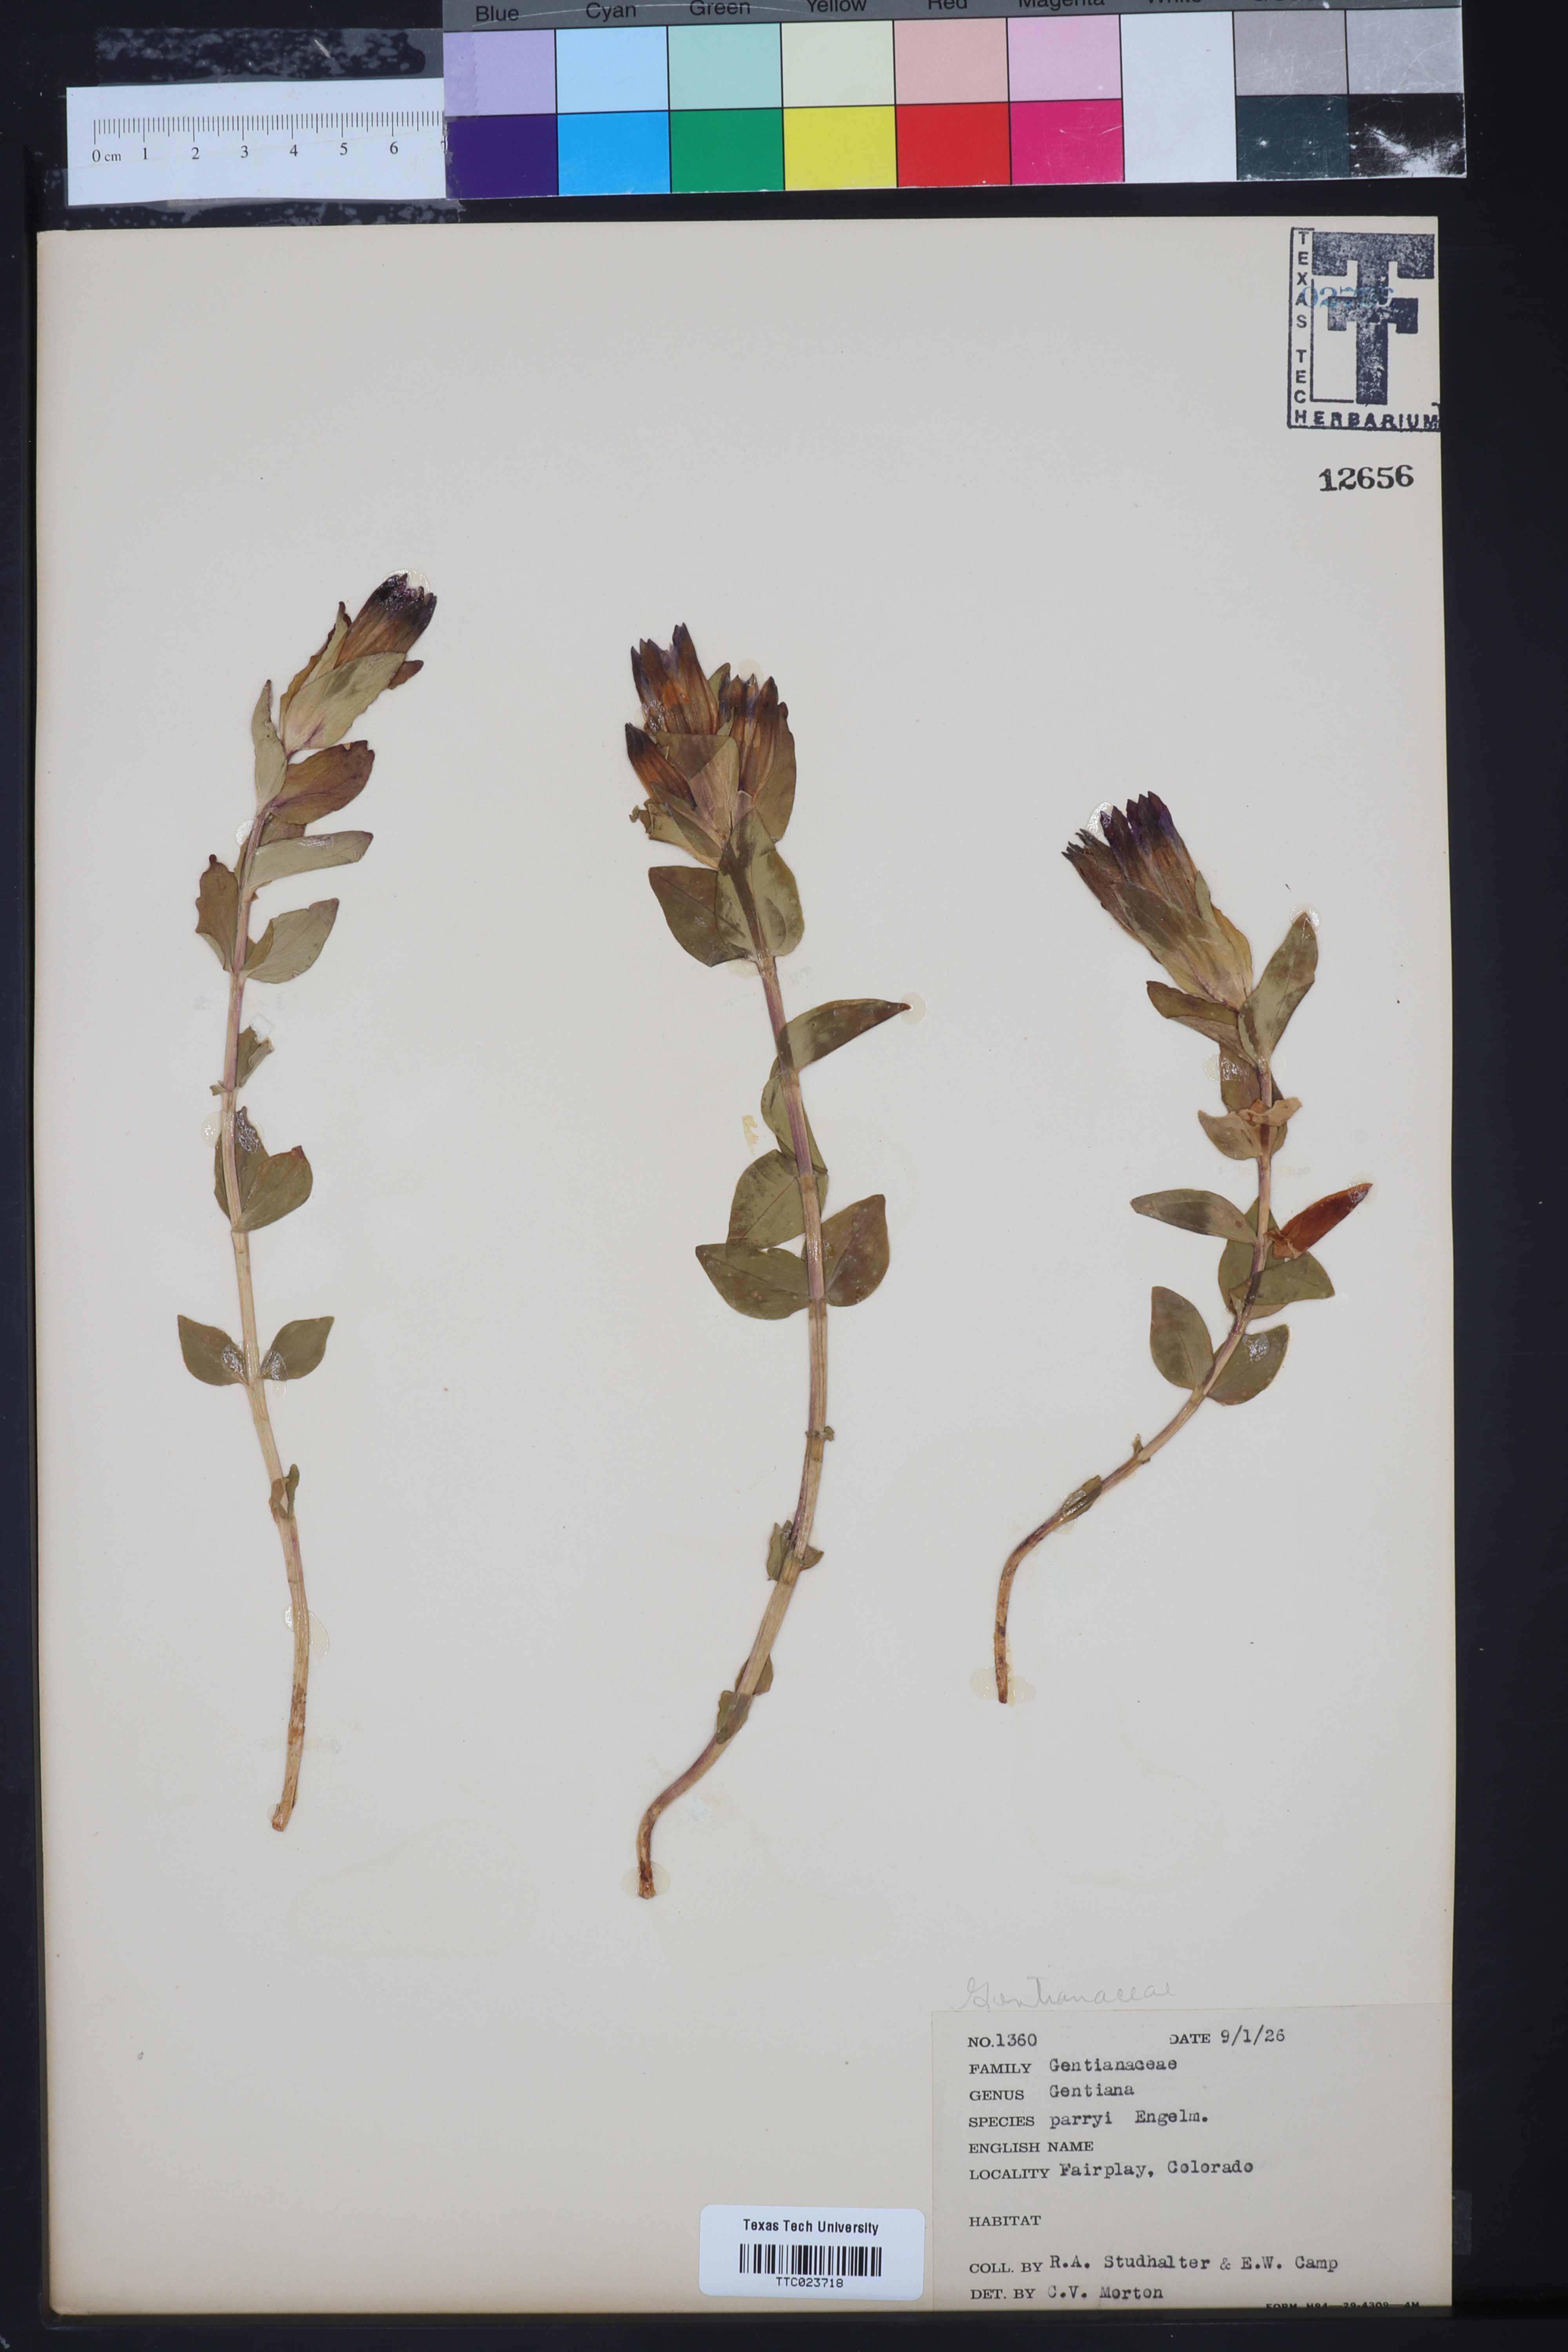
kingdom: Plantae
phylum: Tracheophyta
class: Magnoliopsida
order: Gentianales
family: Gentianaceae
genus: Gentiana
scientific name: Gentiana parryi
